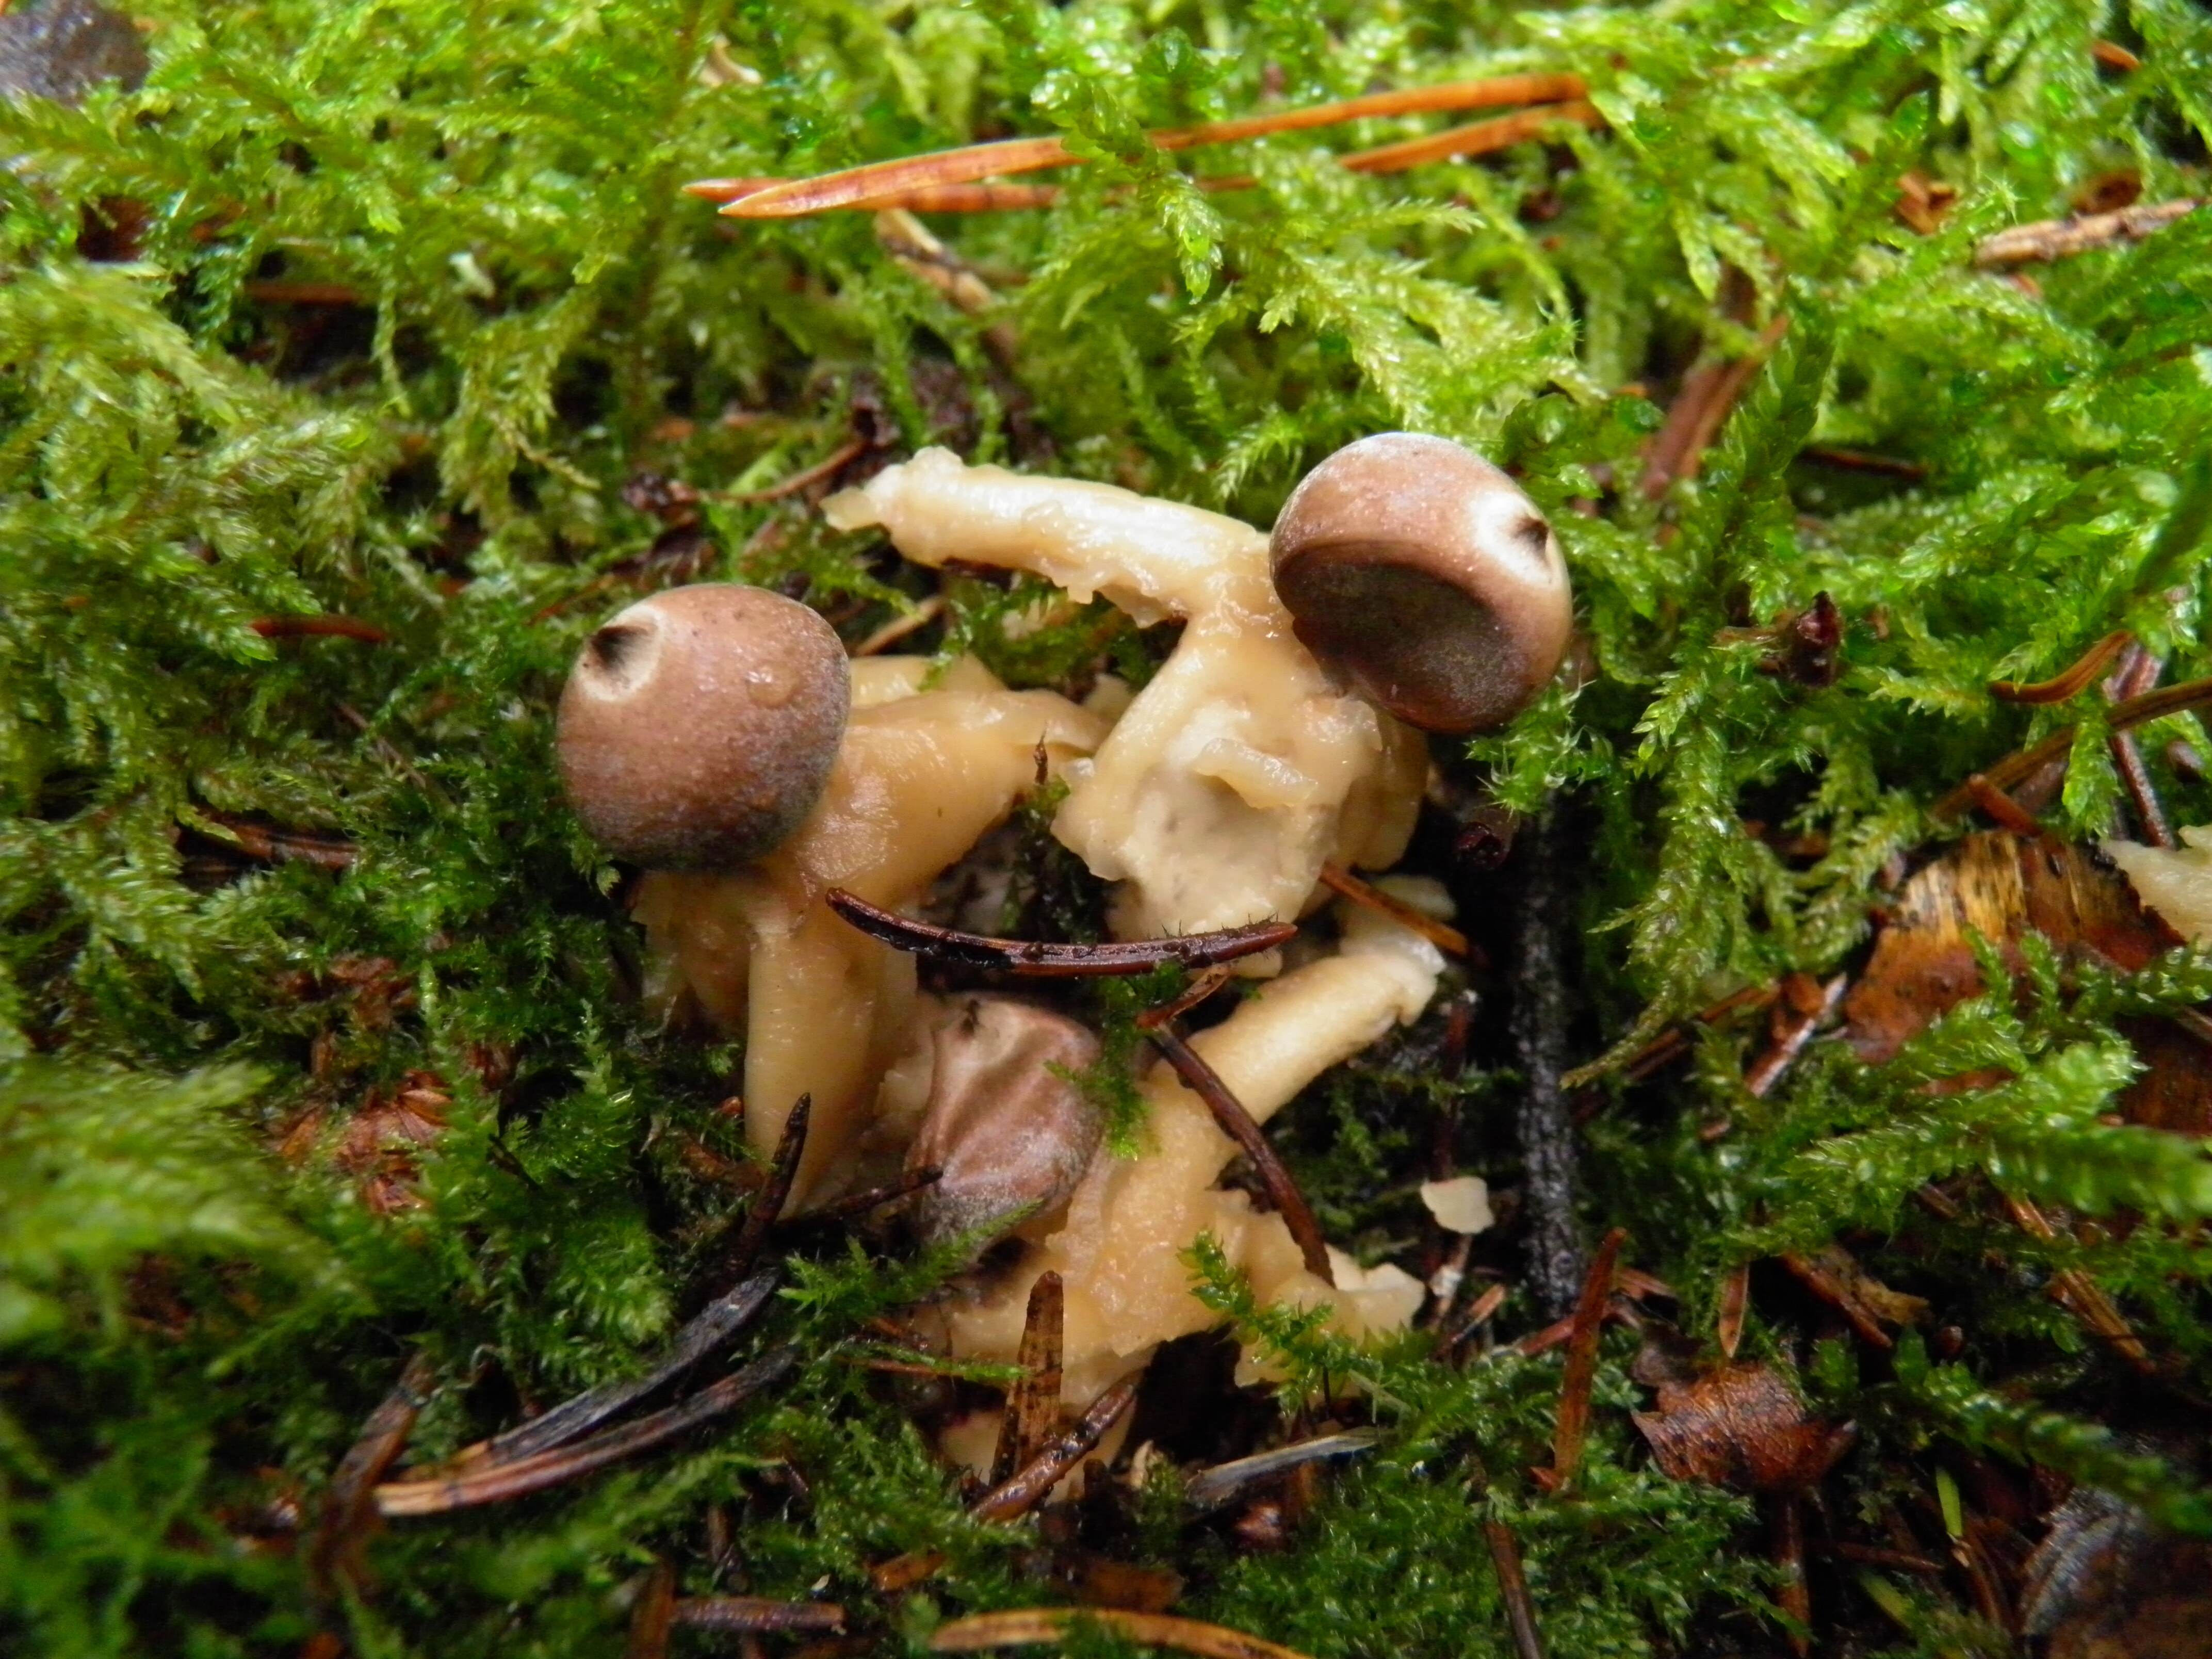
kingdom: Fungi
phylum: Basidiomycota
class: Agaricomycetes
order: Geastrales
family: Geastraceae
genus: Geastrum
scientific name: Geastrum quadrifidum
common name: Rayed earthstar
